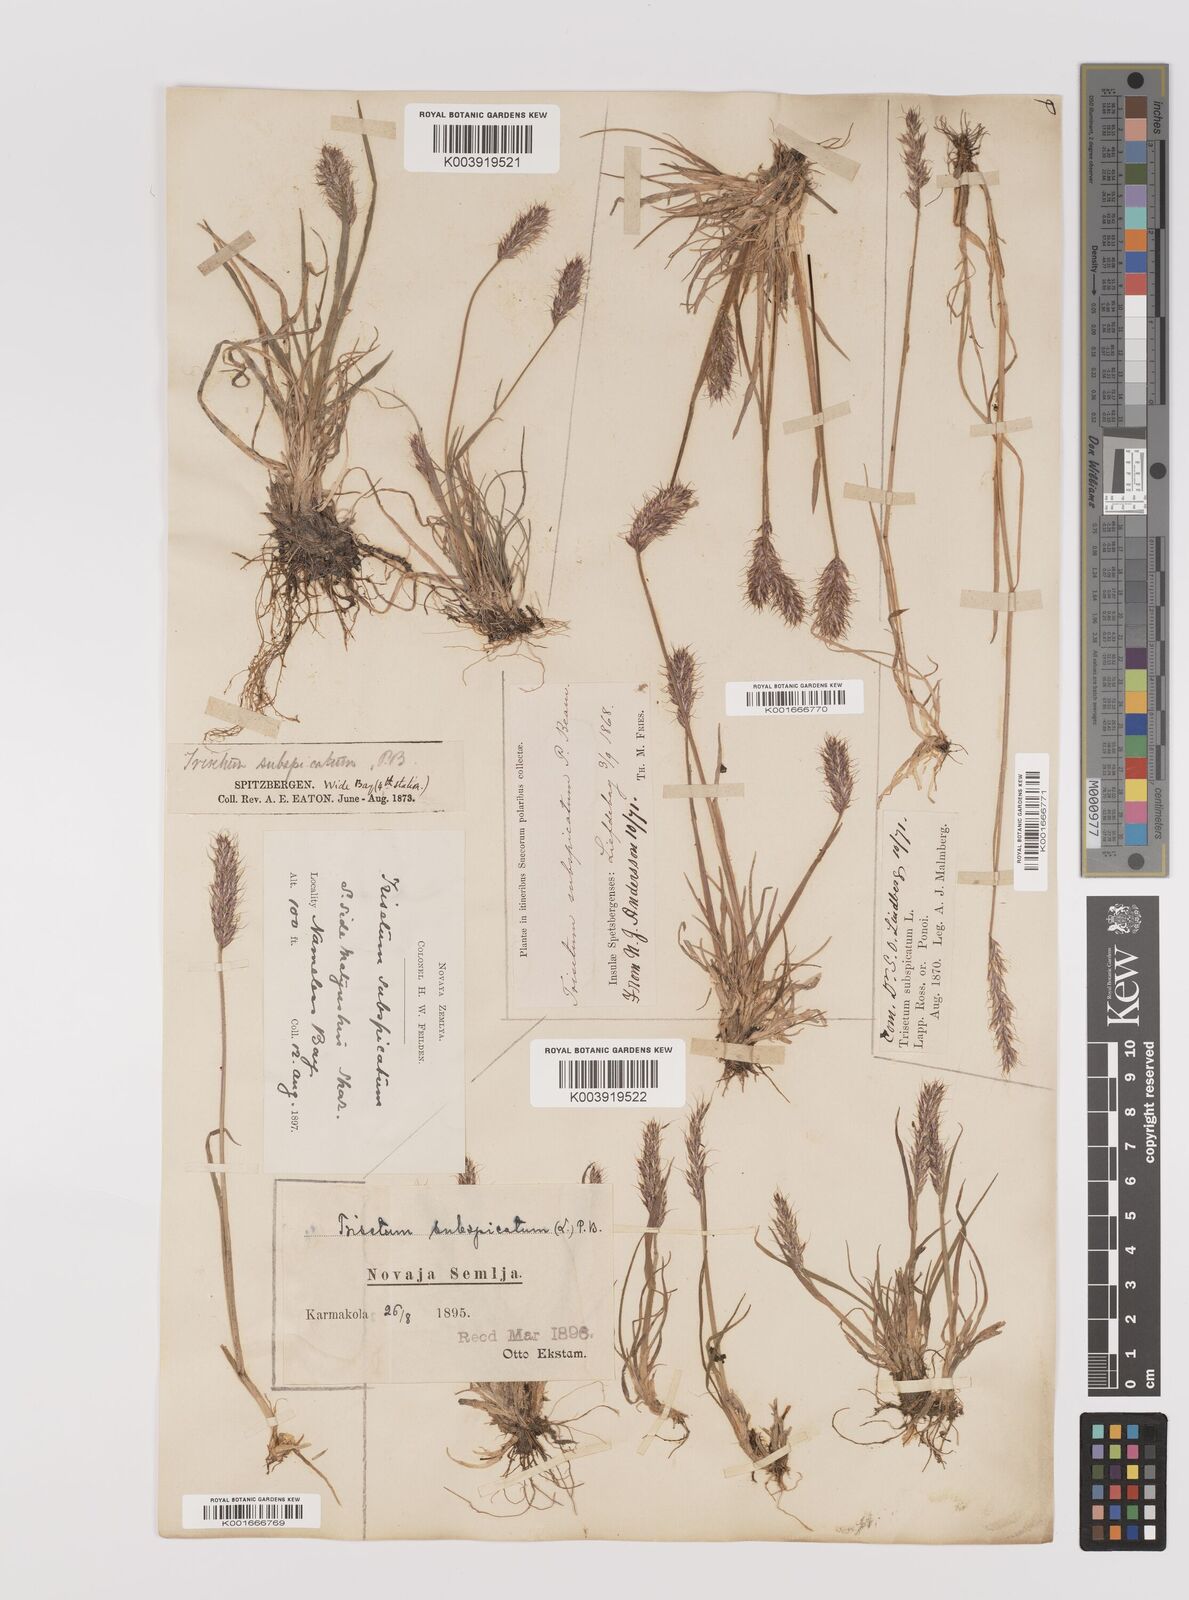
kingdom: Plantae
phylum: Tracheophyta
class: Liliopsida
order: Poales
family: Poaceae
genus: Koeleria
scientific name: Koeleria spicata
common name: Mountain trisetum
